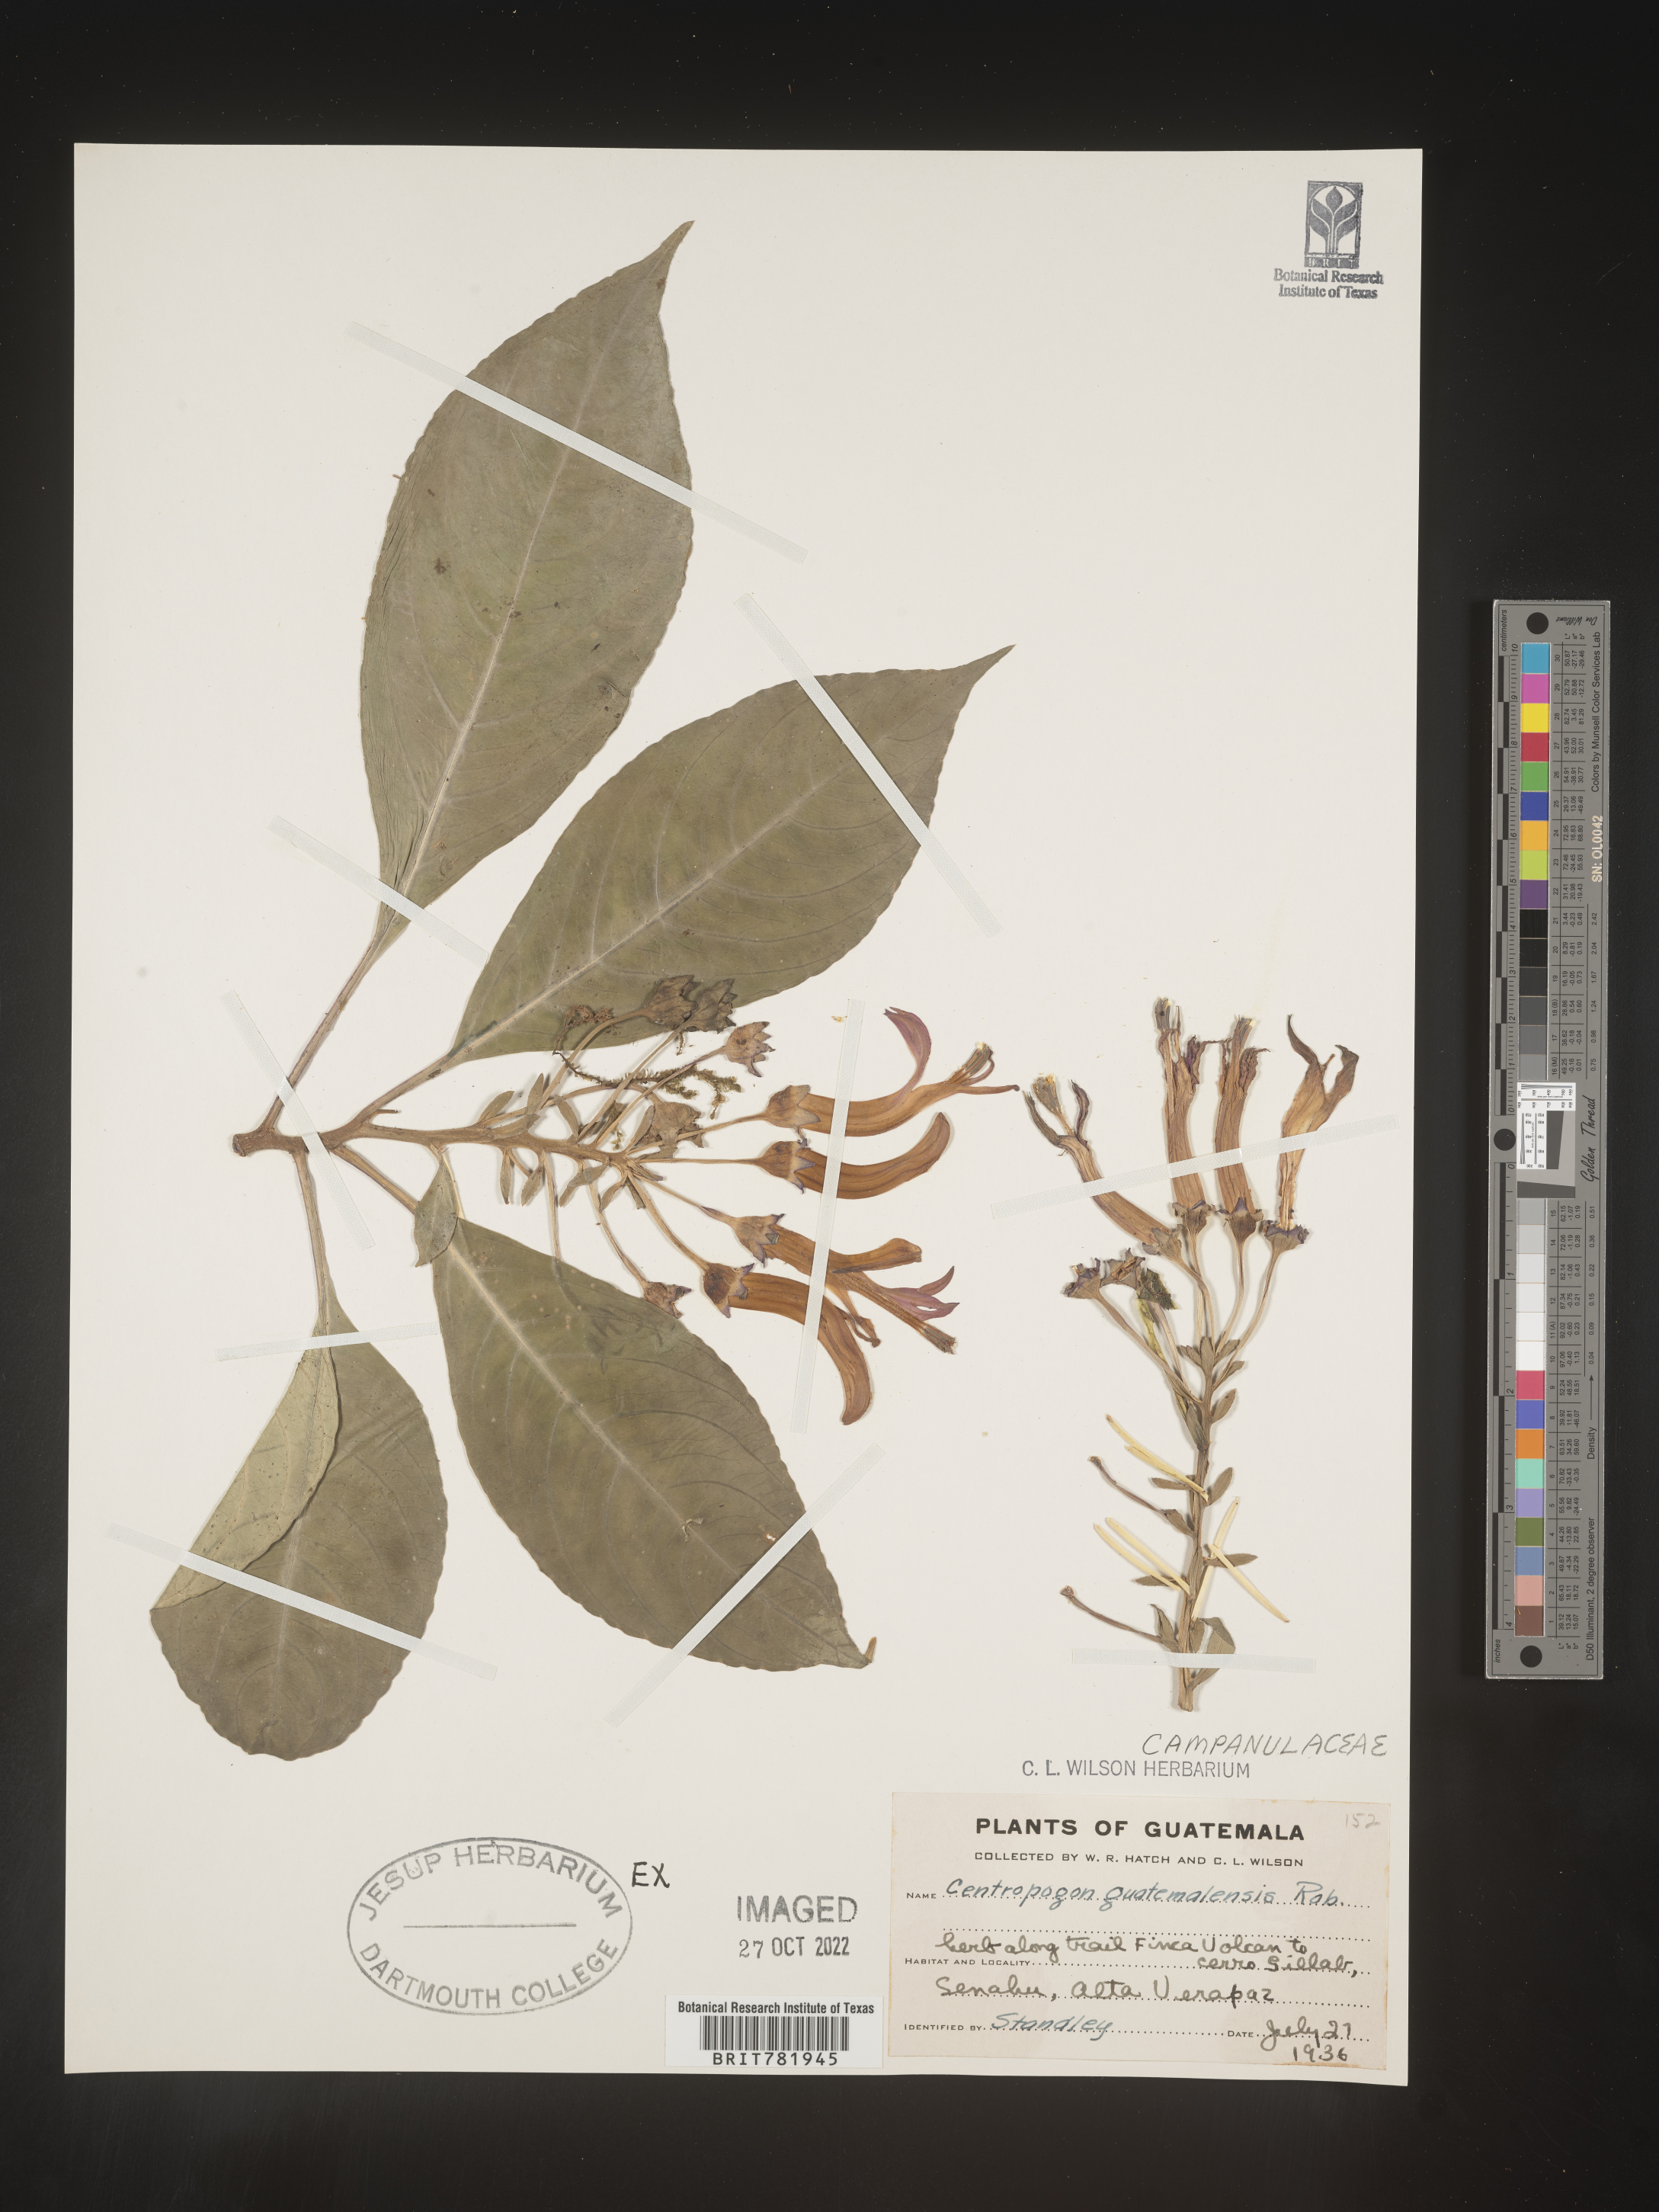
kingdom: Plantae
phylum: Tracheophyta
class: Magnoliopsida
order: Asterales
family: Campanulaceae
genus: Centropogon
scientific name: Centropogon
